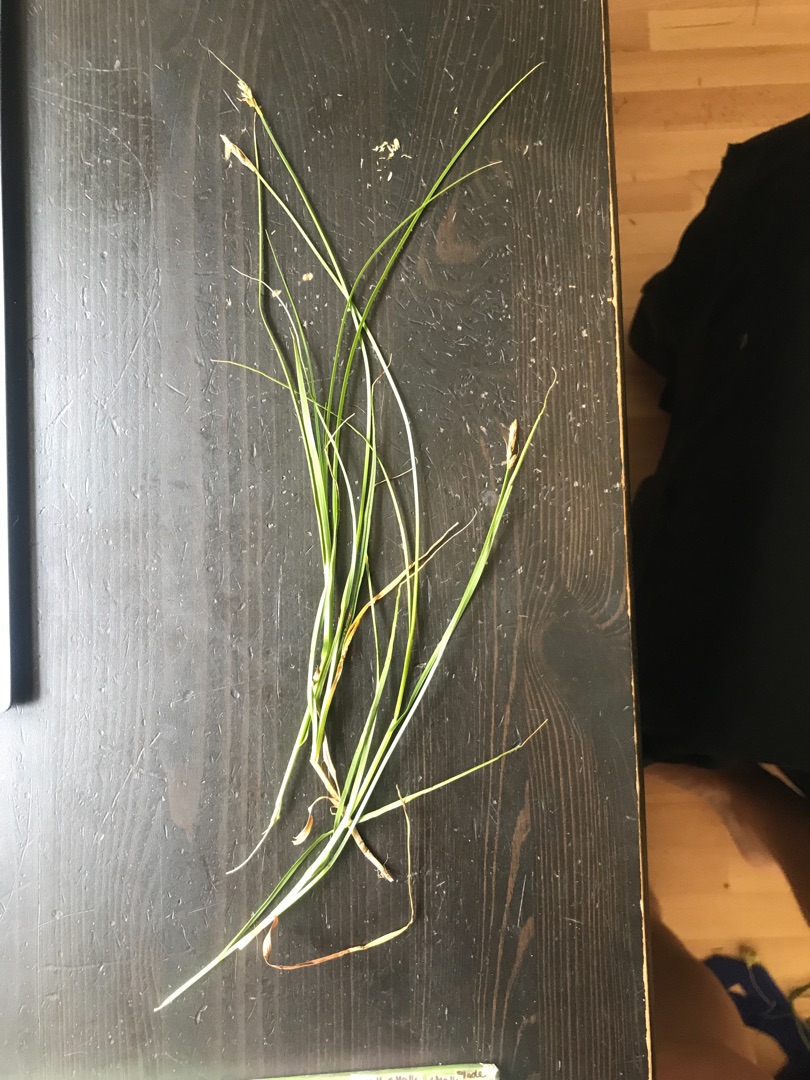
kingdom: Plantae
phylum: Tracheophyta
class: Liliopsida
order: Poales
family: Cyperaceae
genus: Carex
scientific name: Carex
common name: Starslægten
